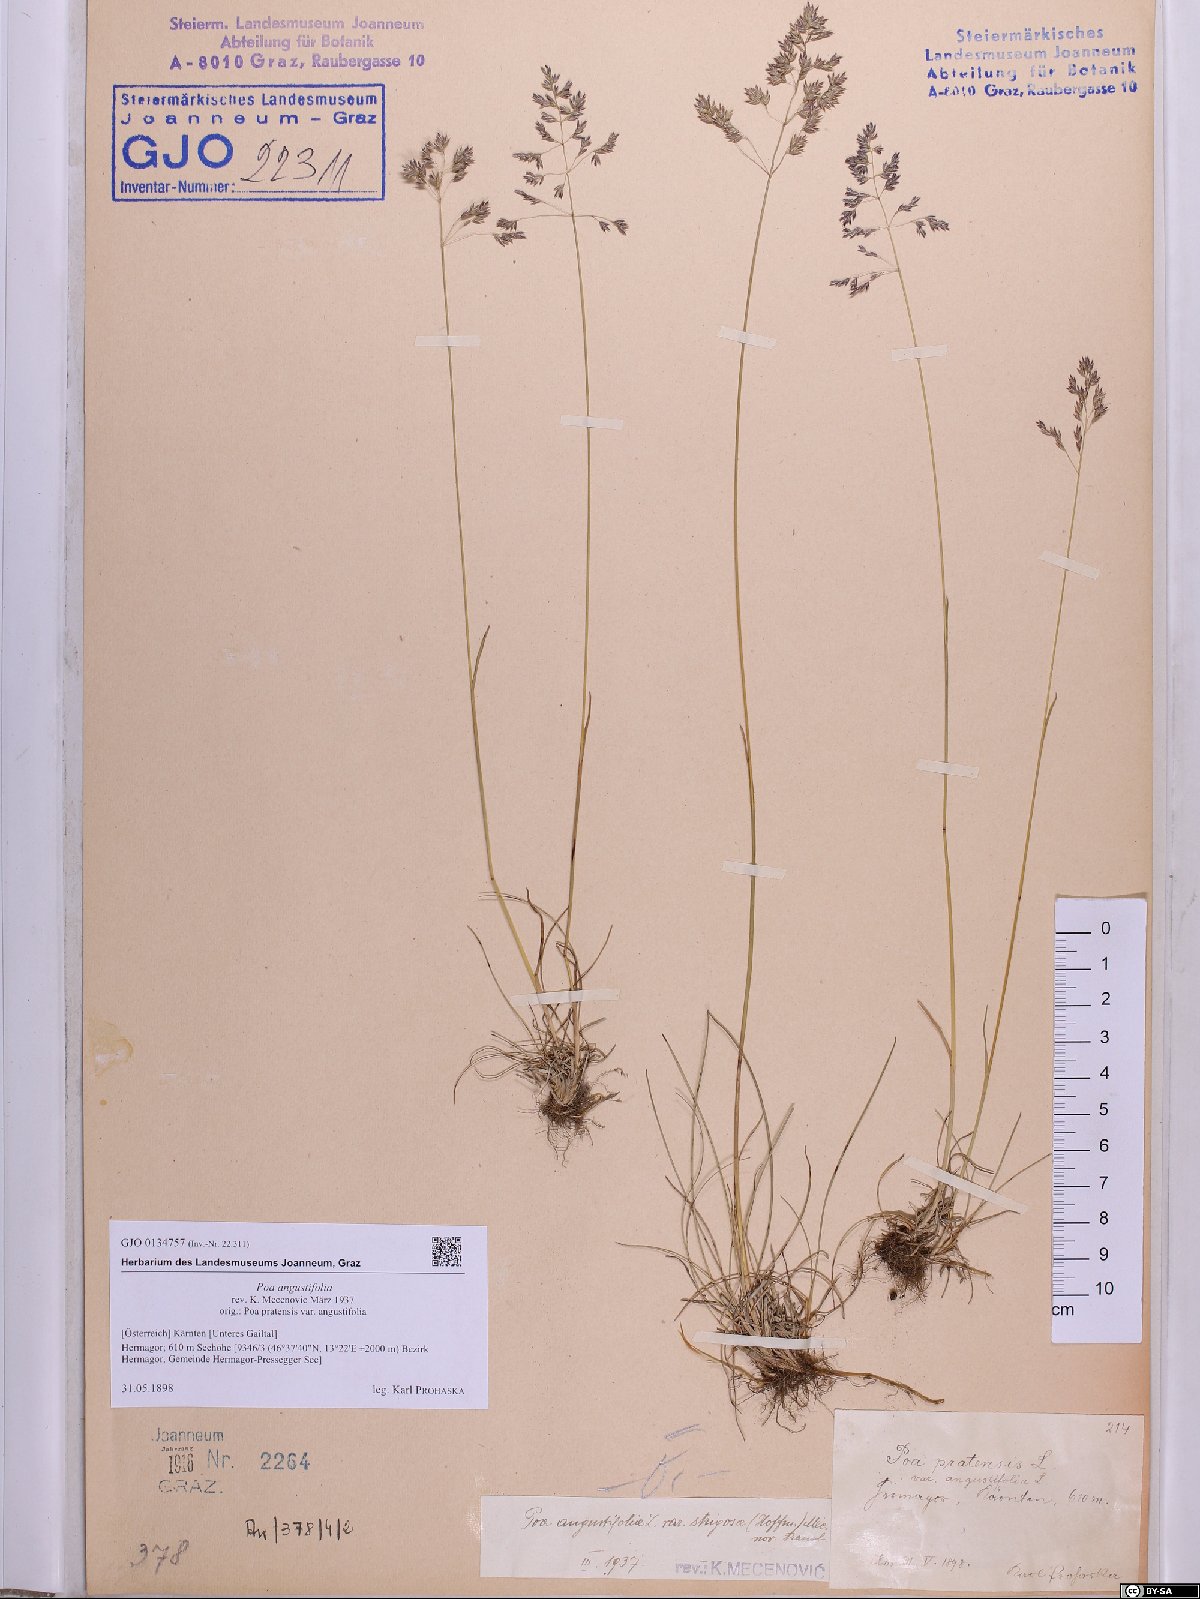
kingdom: Plantae
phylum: Tracheophyta
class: Liliopsida
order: Poales
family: Poaceae
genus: Poa
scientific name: Poa angustifolia
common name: Narrow-leaved meadow-grass
